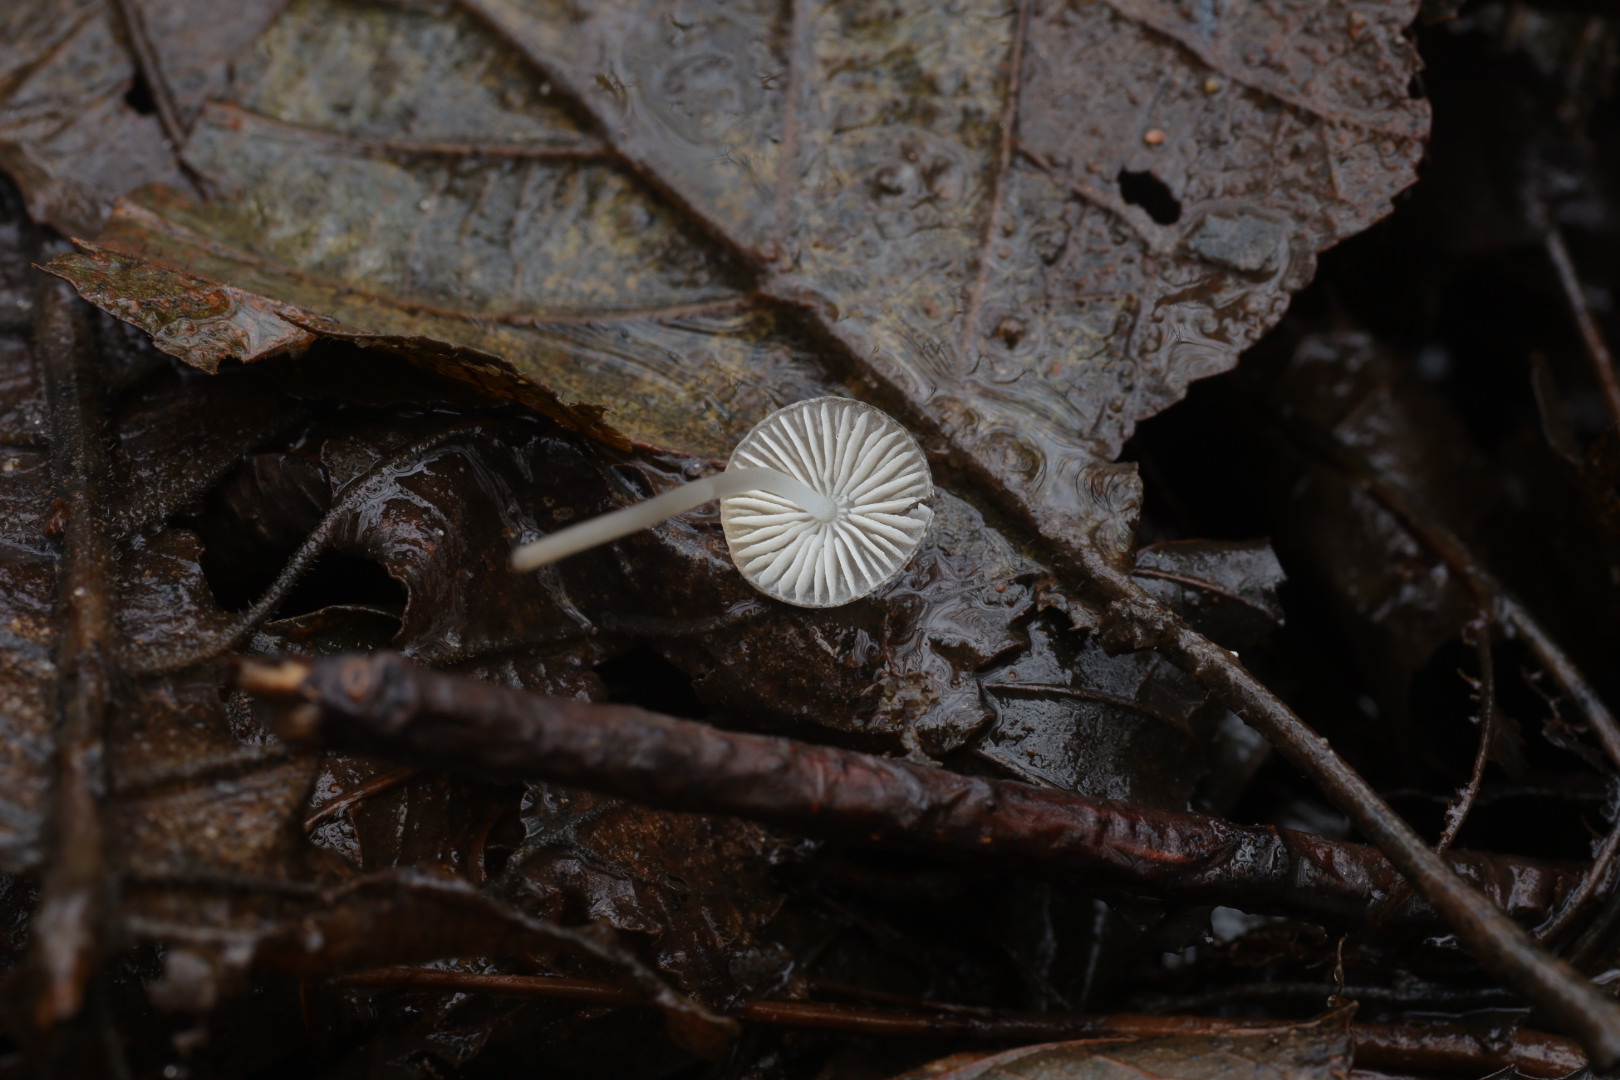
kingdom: Fungi
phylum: Basidiomycota
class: Agaricomycetes
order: Agaricales
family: Mycenaceae
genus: Mycena
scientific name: Mycena vitilis
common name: blankstokket huesvamp
